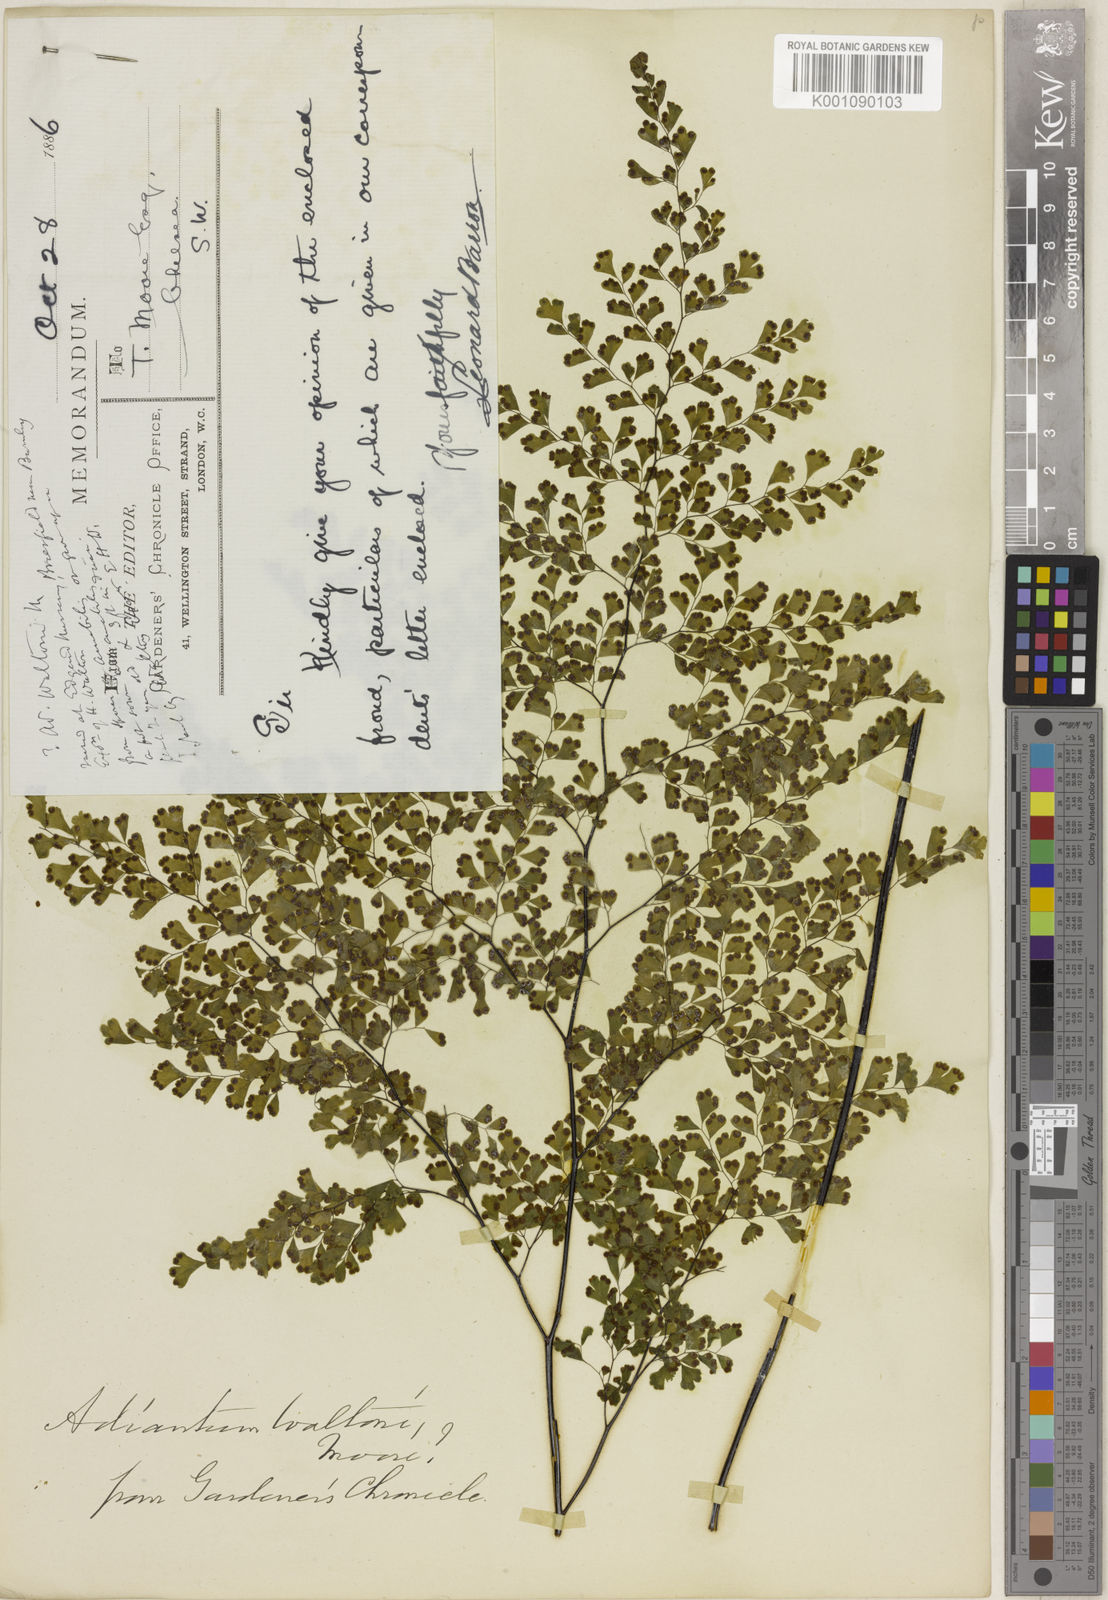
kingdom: Plantae
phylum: Tracheophyta
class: Polypodiopsida
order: Polypodiales
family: Pteridaceae
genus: Adiantum
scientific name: Adiantum raddianum
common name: Delta maidenhair fern
